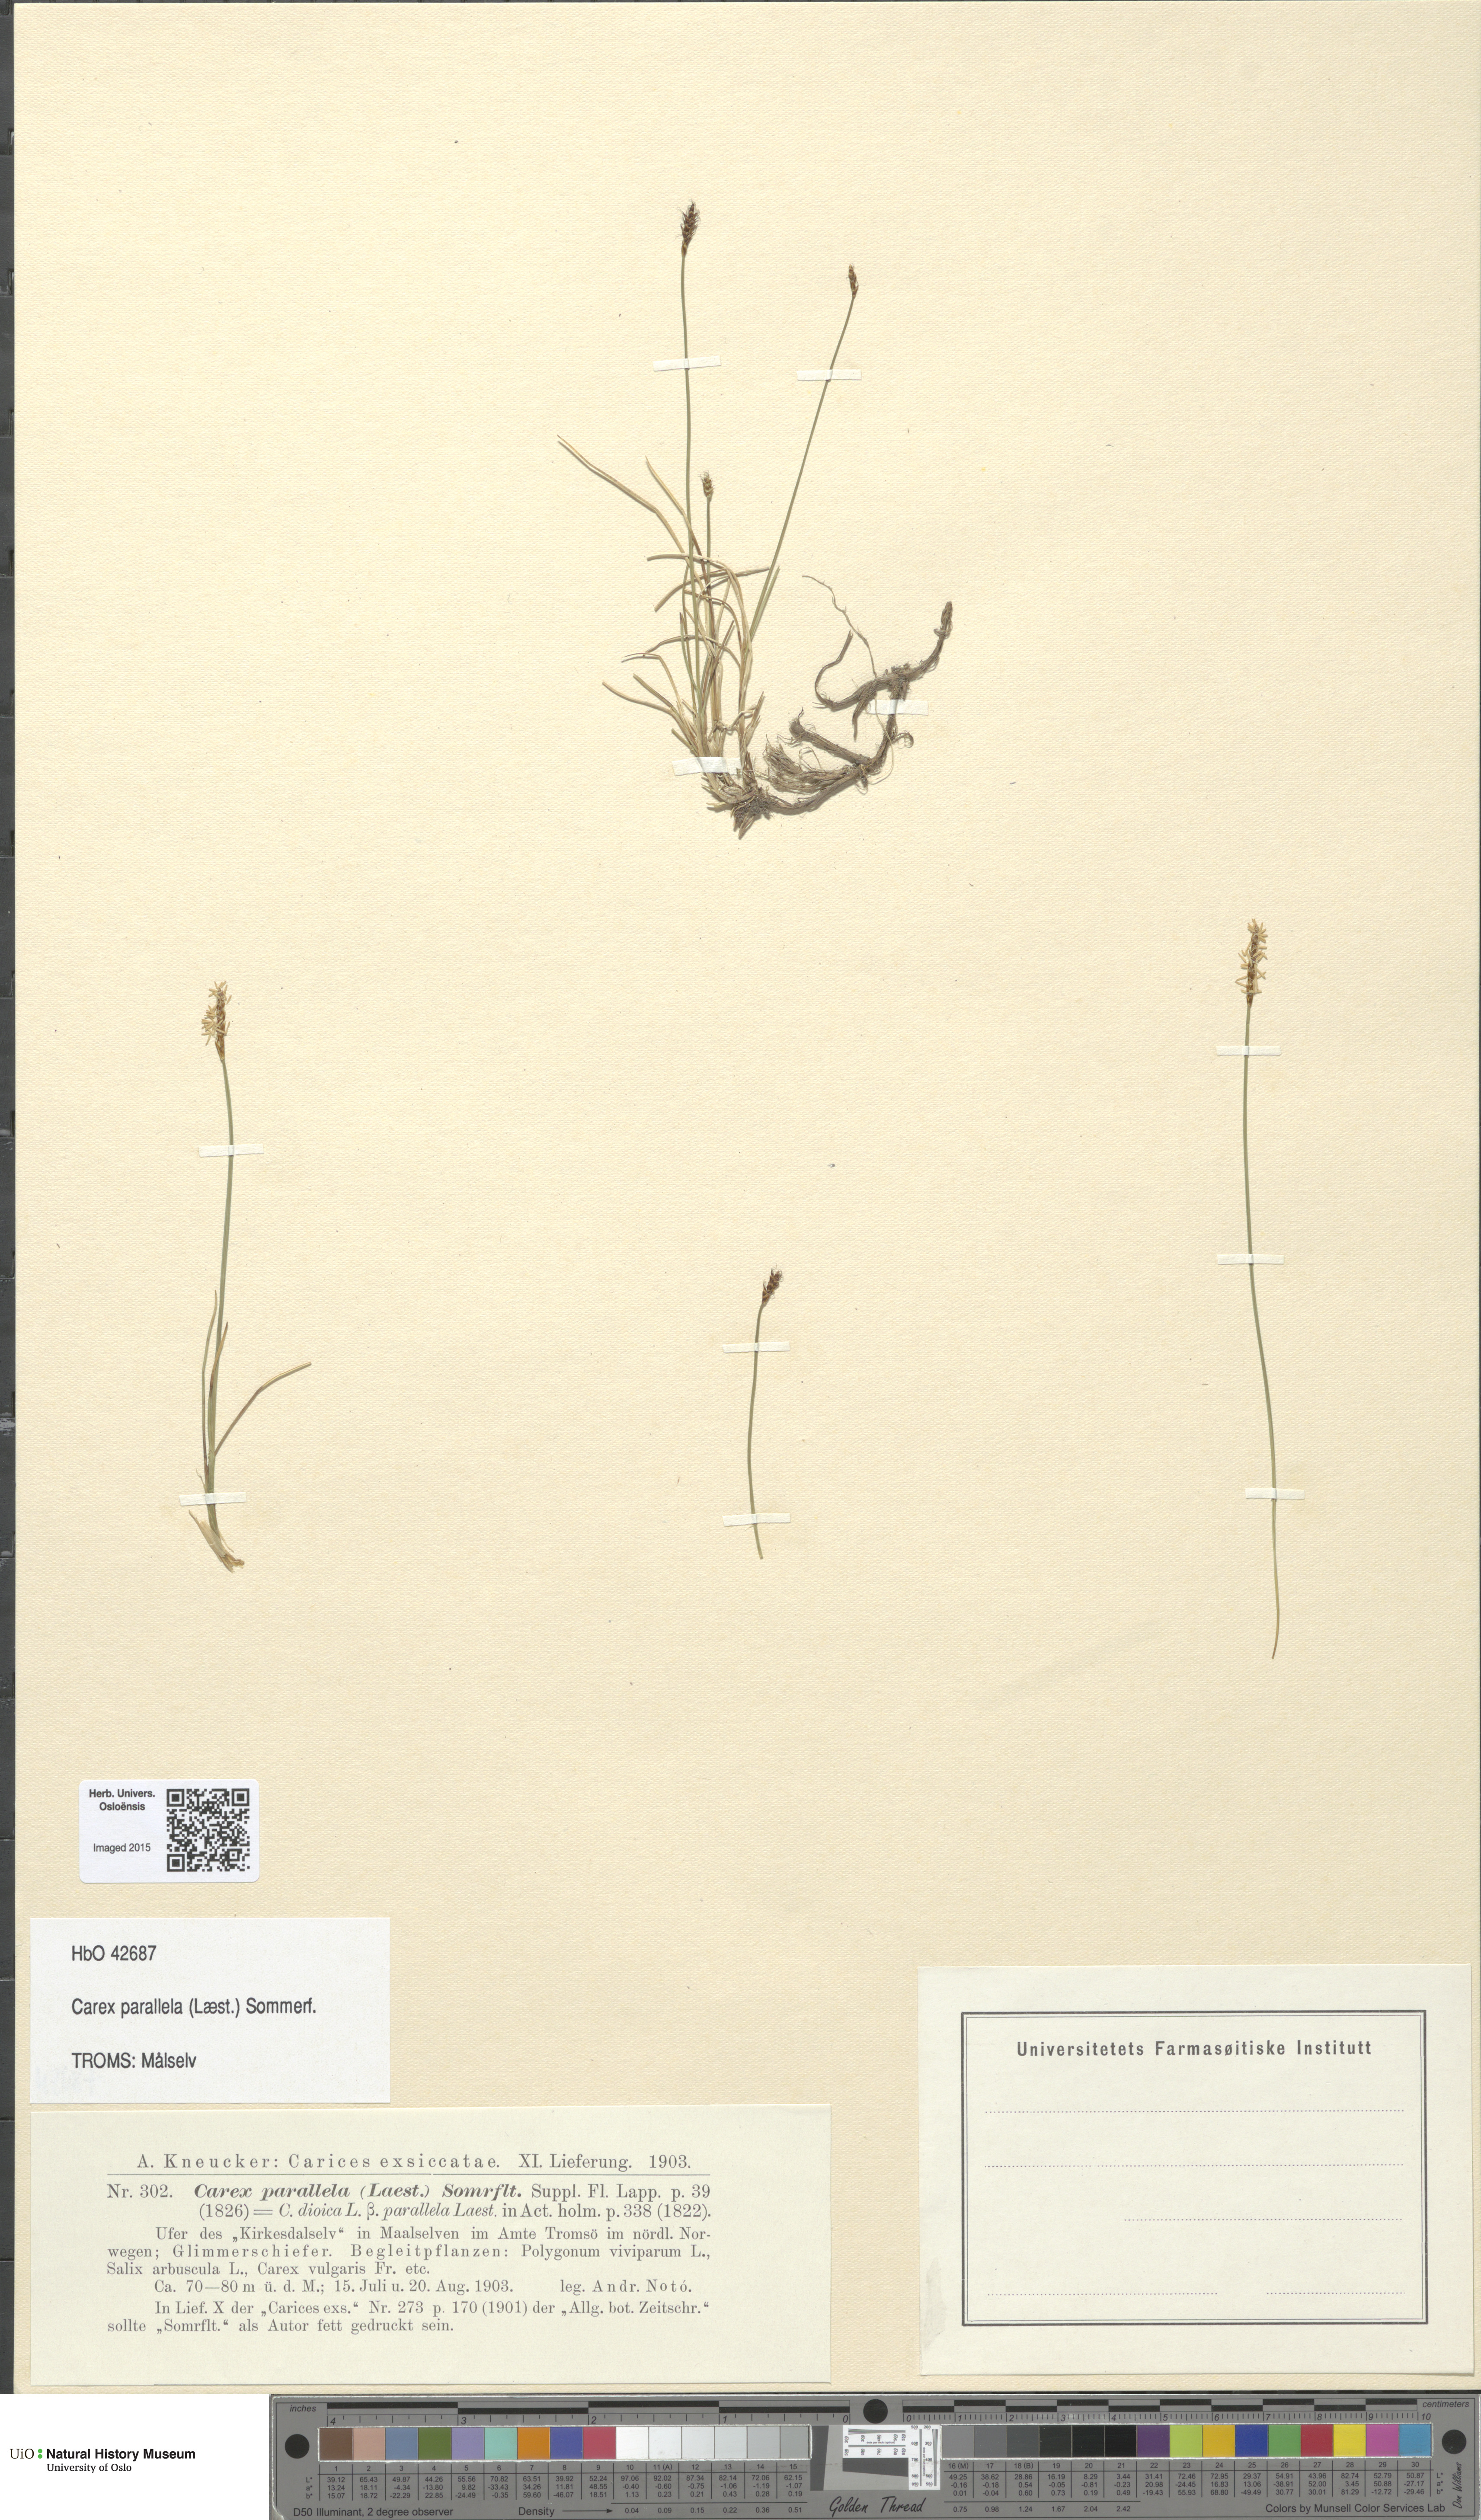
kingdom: Plantae
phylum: Tracheophyta
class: Liliopsida
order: Poales
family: Cyperaceae
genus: Carex
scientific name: Carex parallela
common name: Parallel sedge
